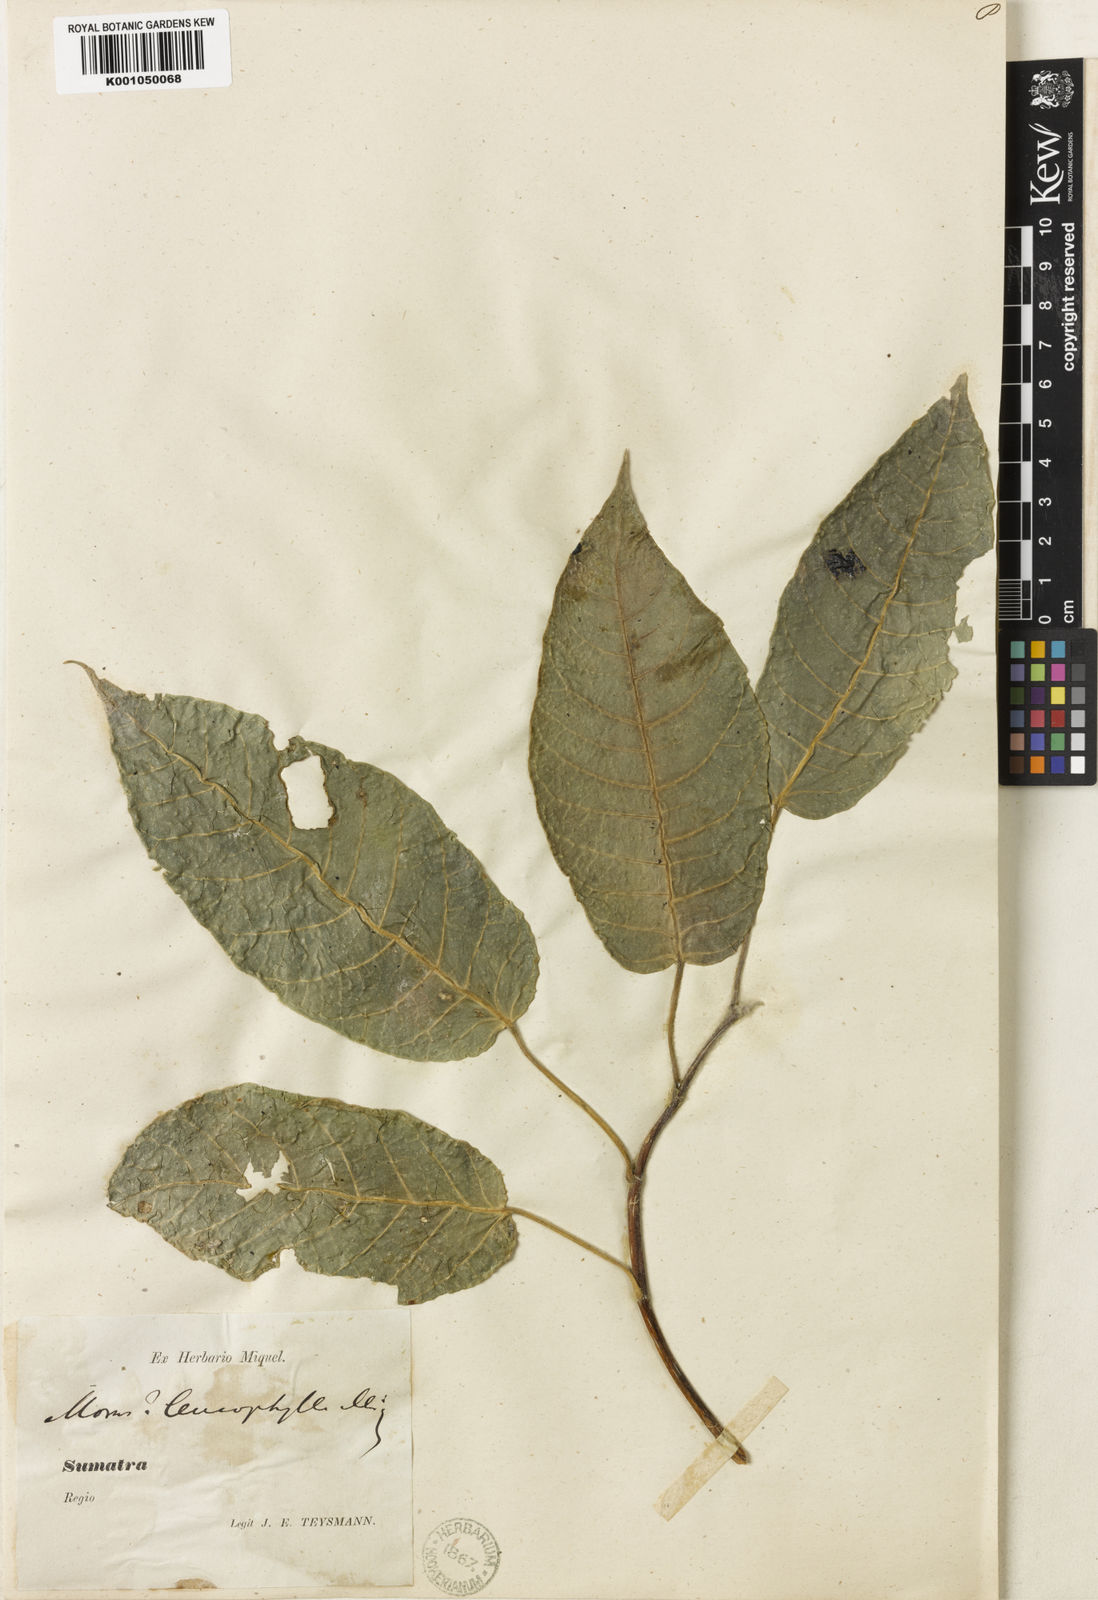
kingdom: Plantae
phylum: Tracheophyta
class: Magnoliopsida
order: Rosales
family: Moraceae
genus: Ficus
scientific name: Ficus albipila
